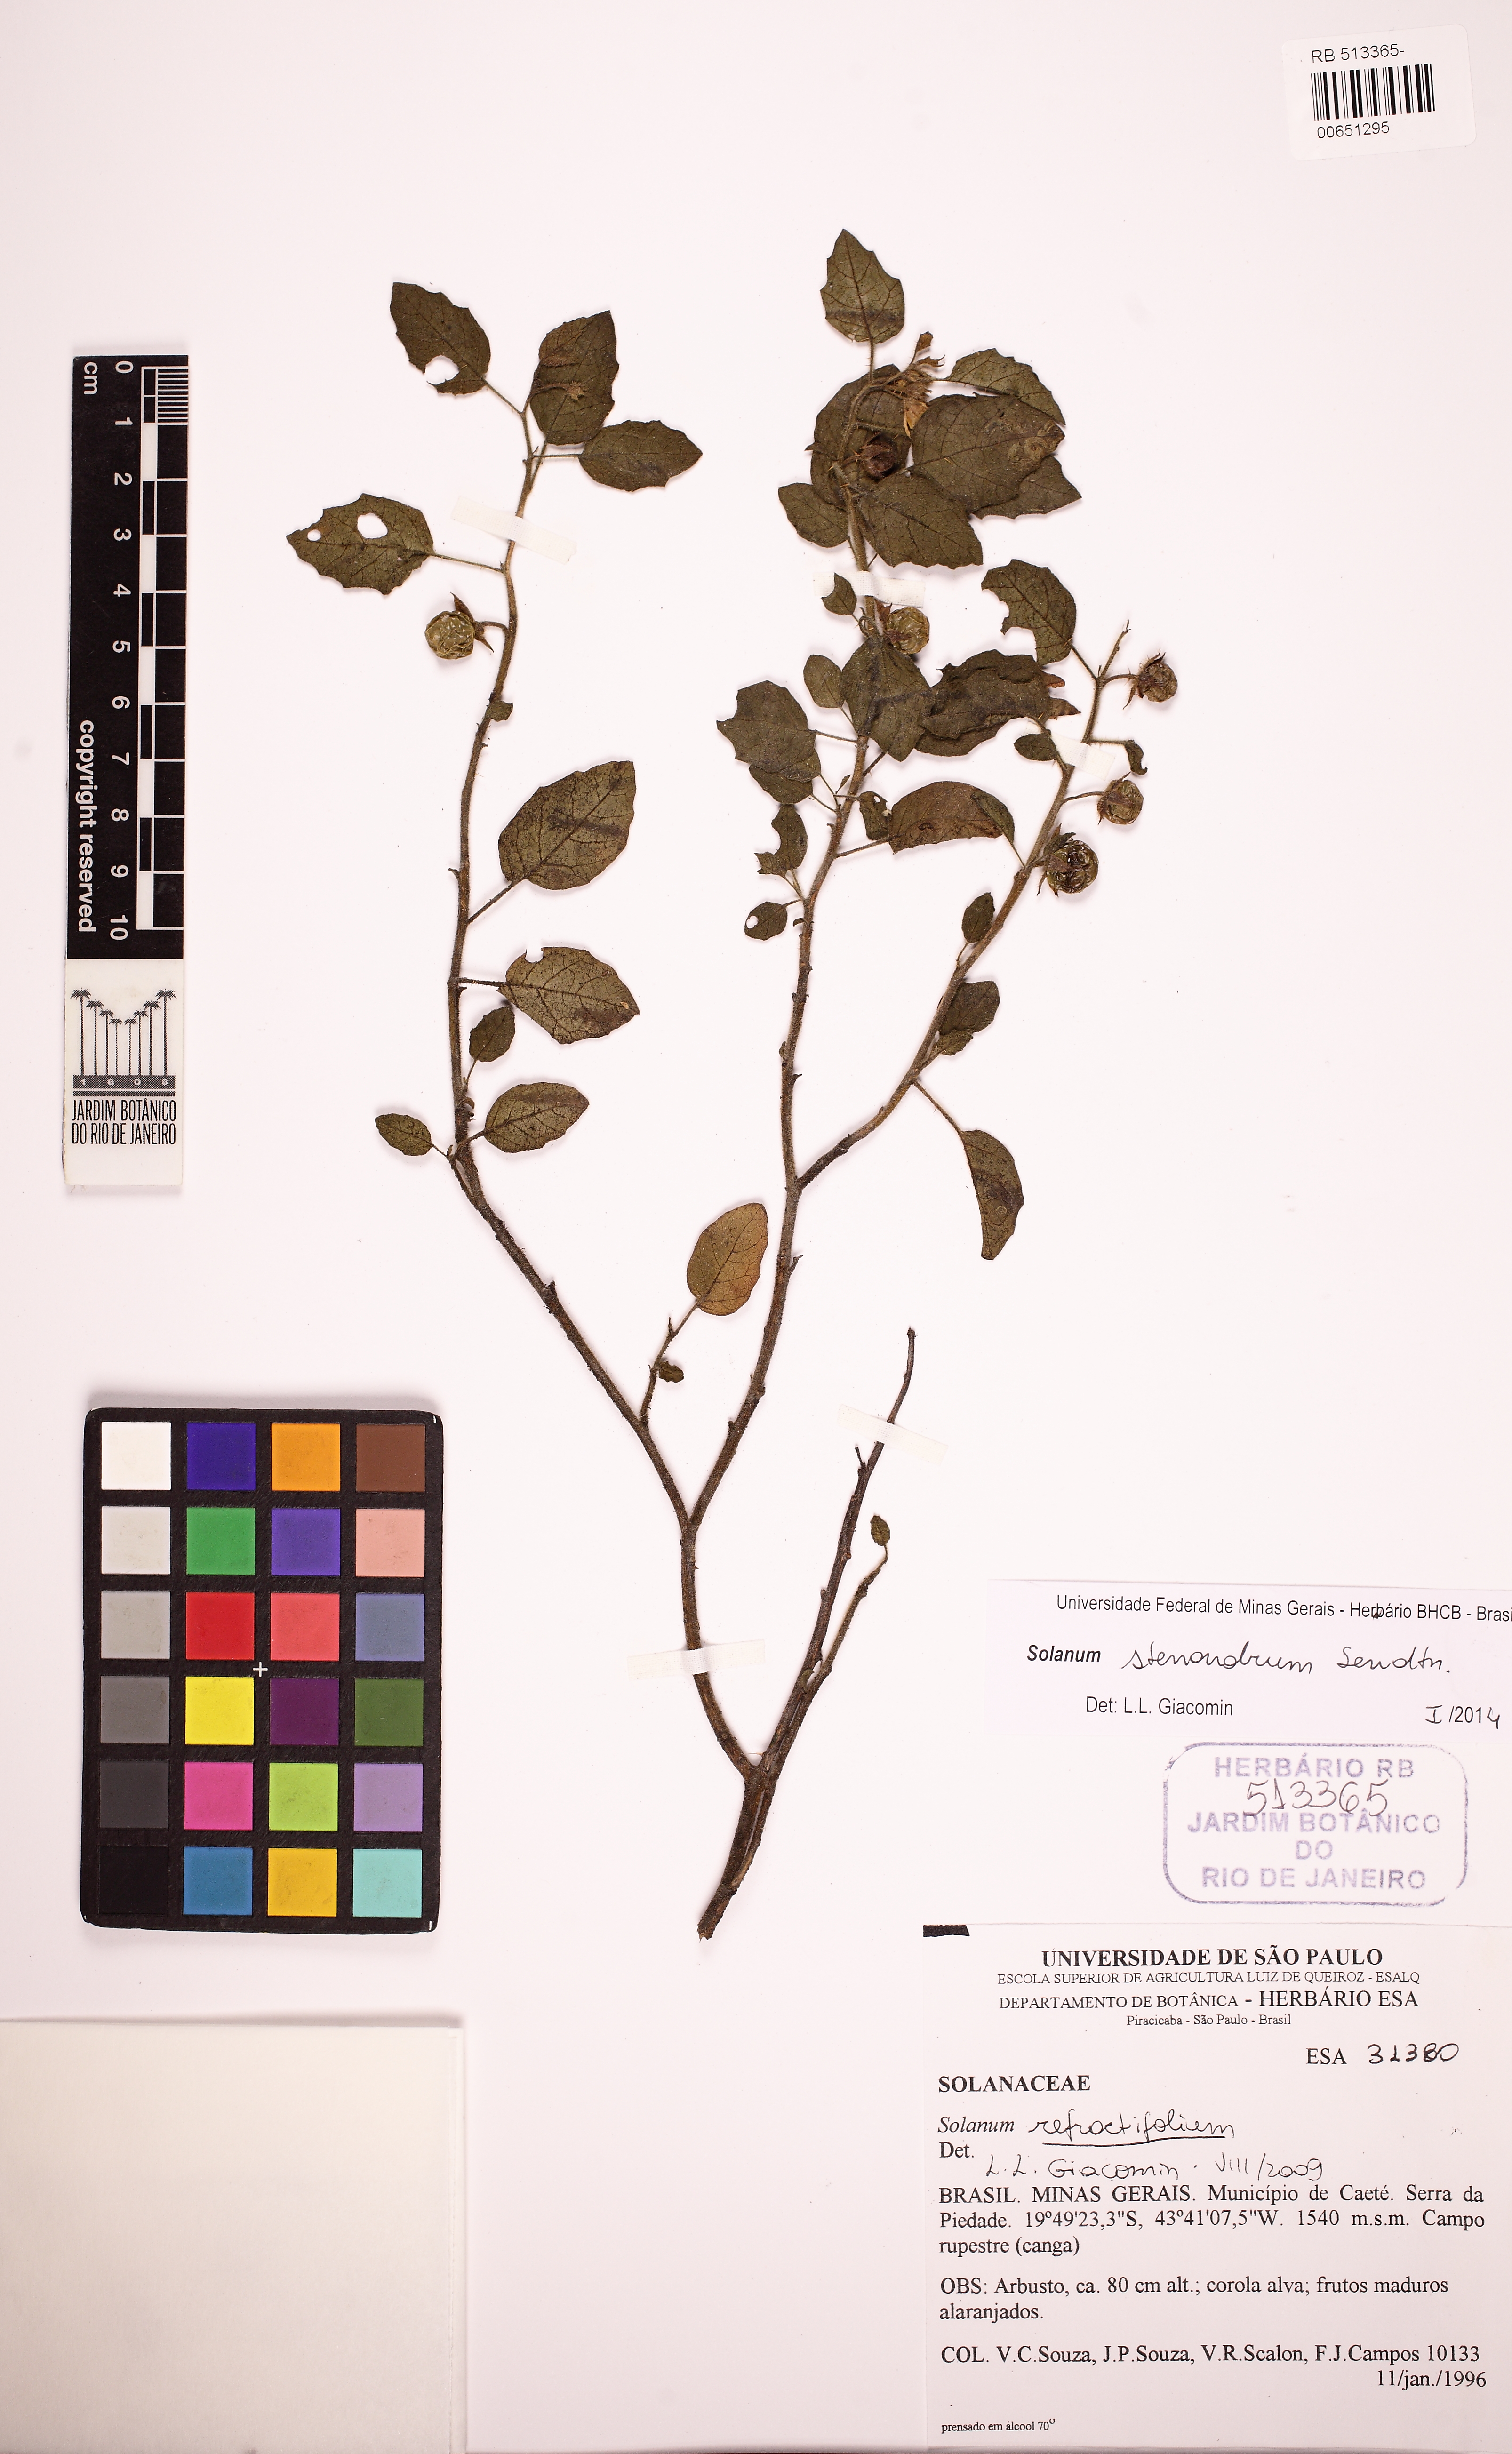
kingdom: Plantae
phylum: Tracheophyta
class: Magnoliopsida
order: Solanales
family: Solanaceae
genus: Solanum
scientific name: Solanum stenandrum
